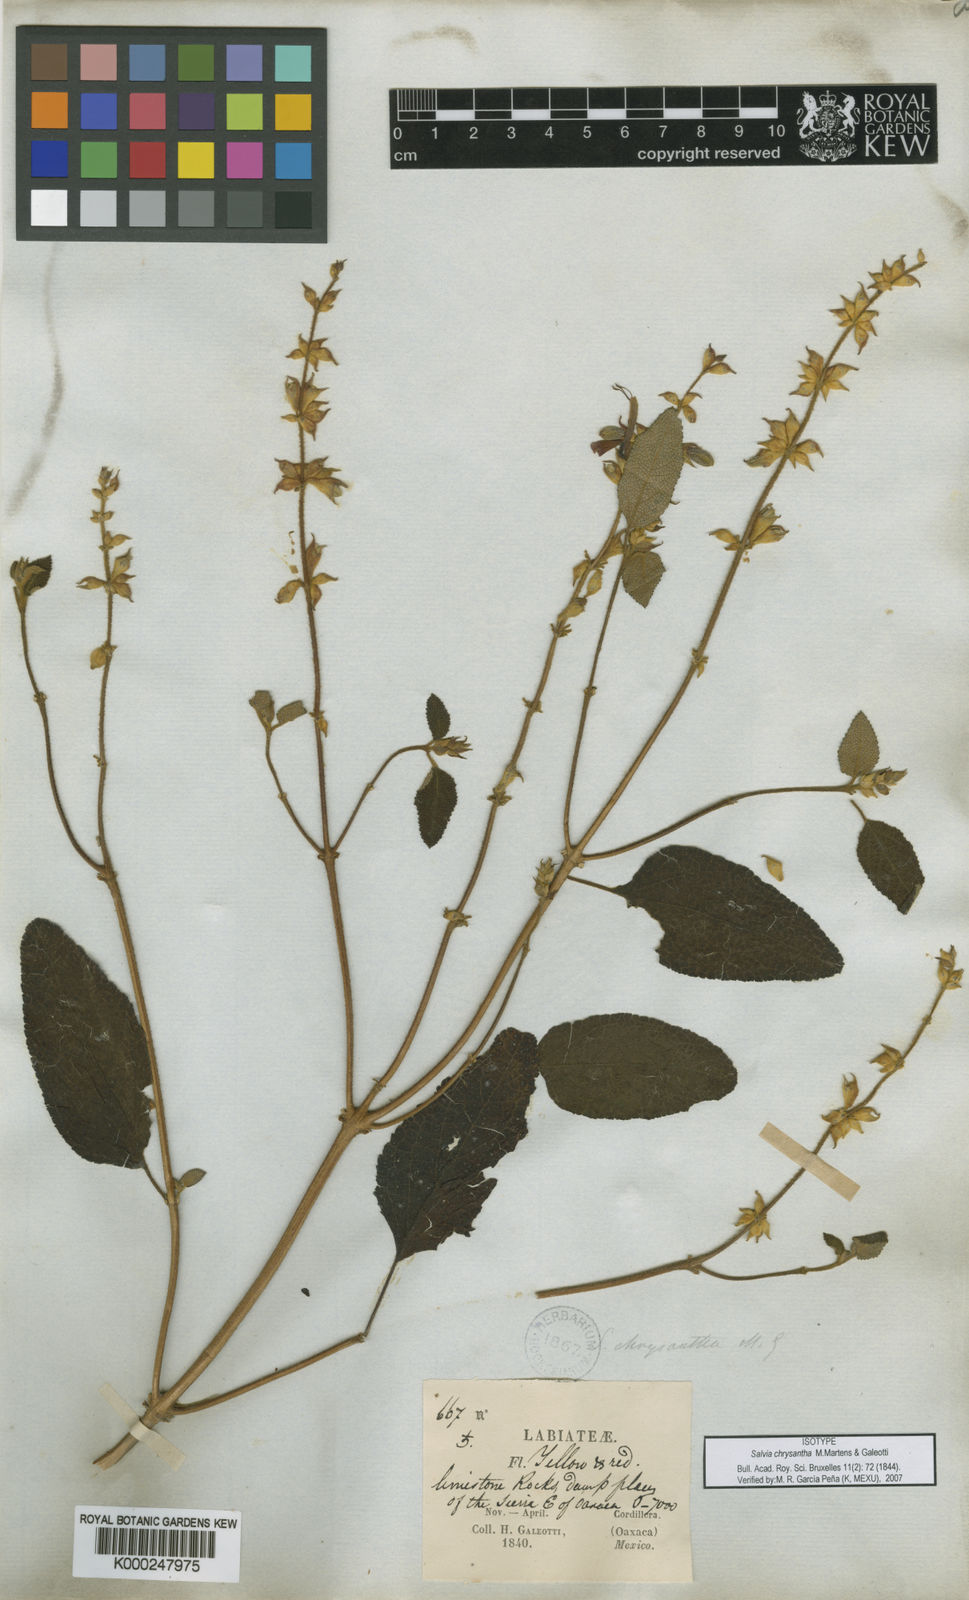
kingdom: Plantae
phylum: Tracheophyta
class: Magnoliopsida
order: Lamiales
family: Lamiaceae
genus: Salvia
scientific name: Salvia lasiantha
